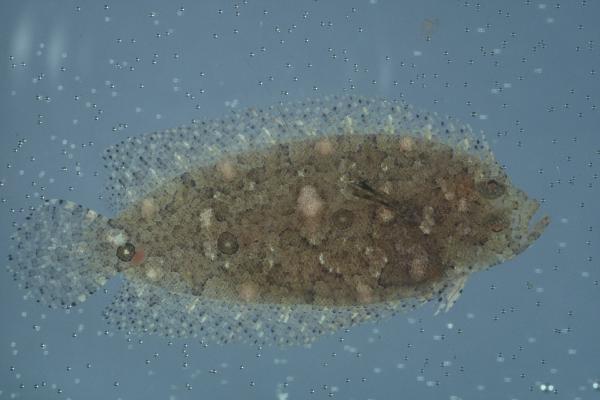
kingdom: Animalia
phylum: Chordata
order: Pleuronectiformes
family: Samaridae
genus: Samariscus
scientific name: Samariscus triocellatus
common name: Three-spot righteye flounder
